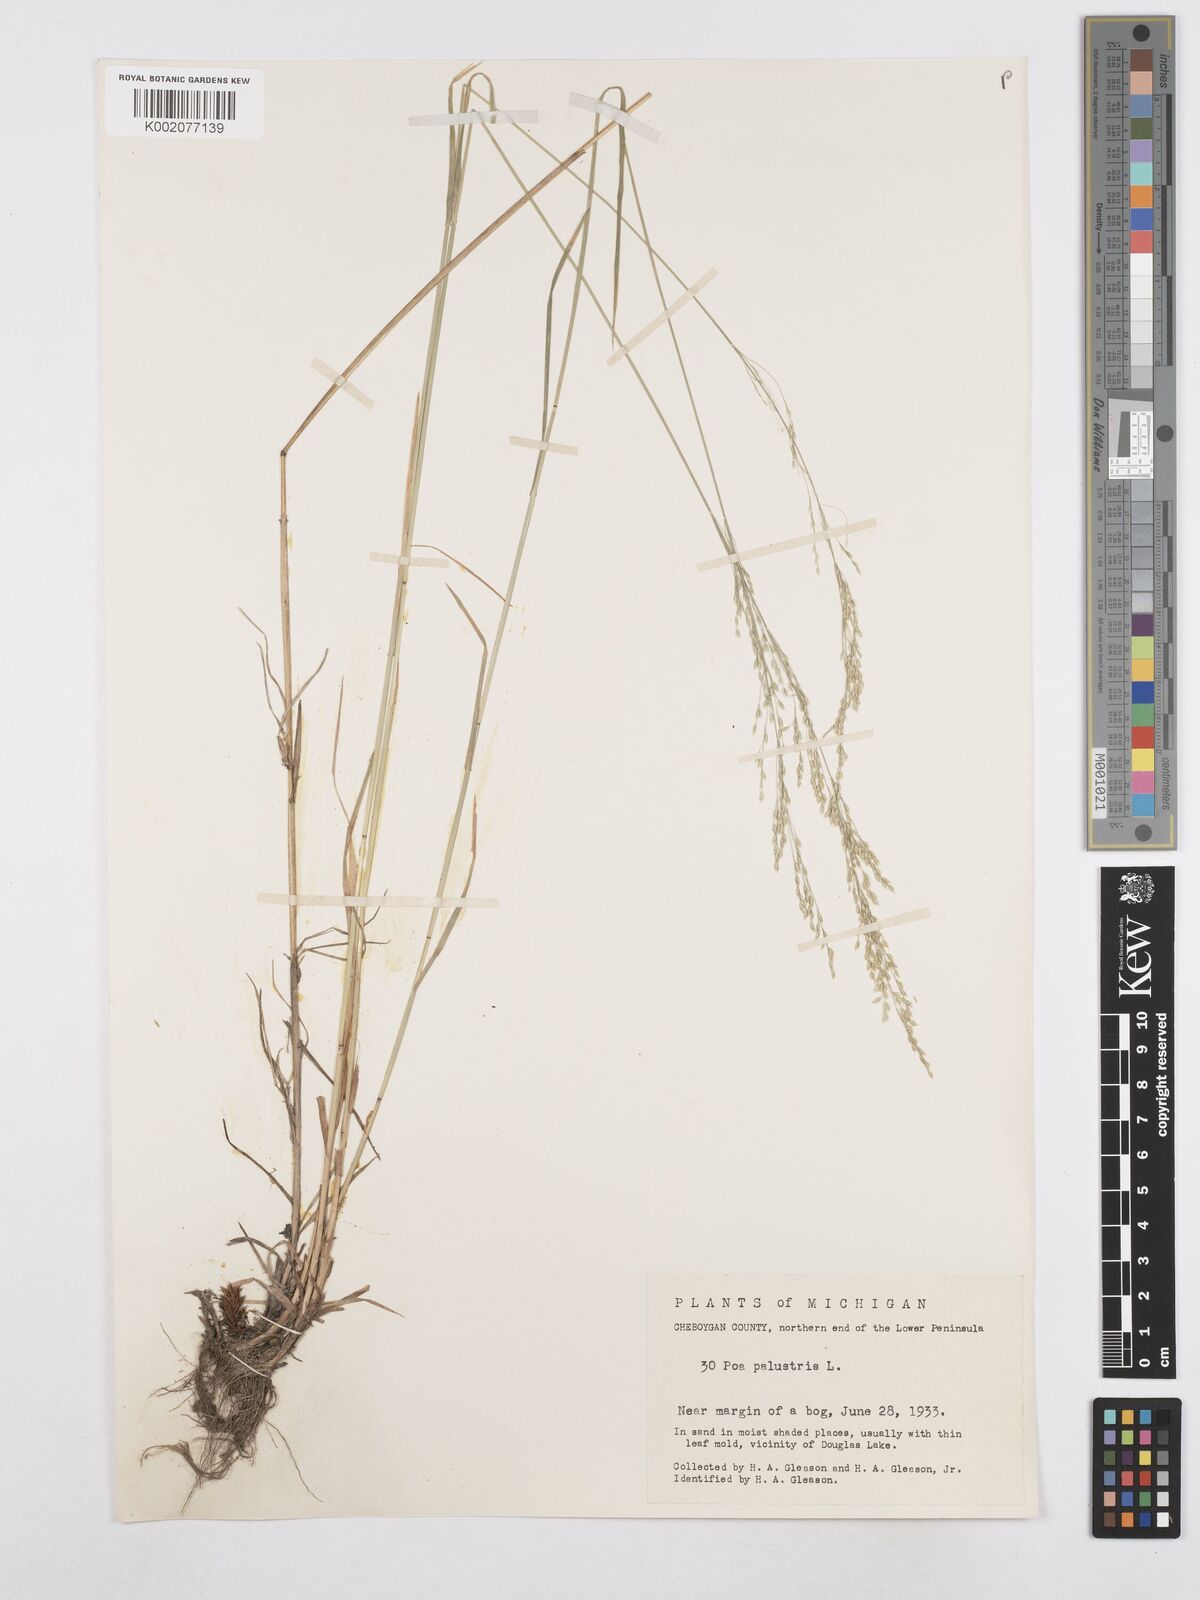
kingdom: Plantae
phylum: Tracheophyta
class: Liliopsida
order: Poales
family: Poaceae
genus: Poa
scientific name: Poa palustris
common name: Swamp meadow-grass
